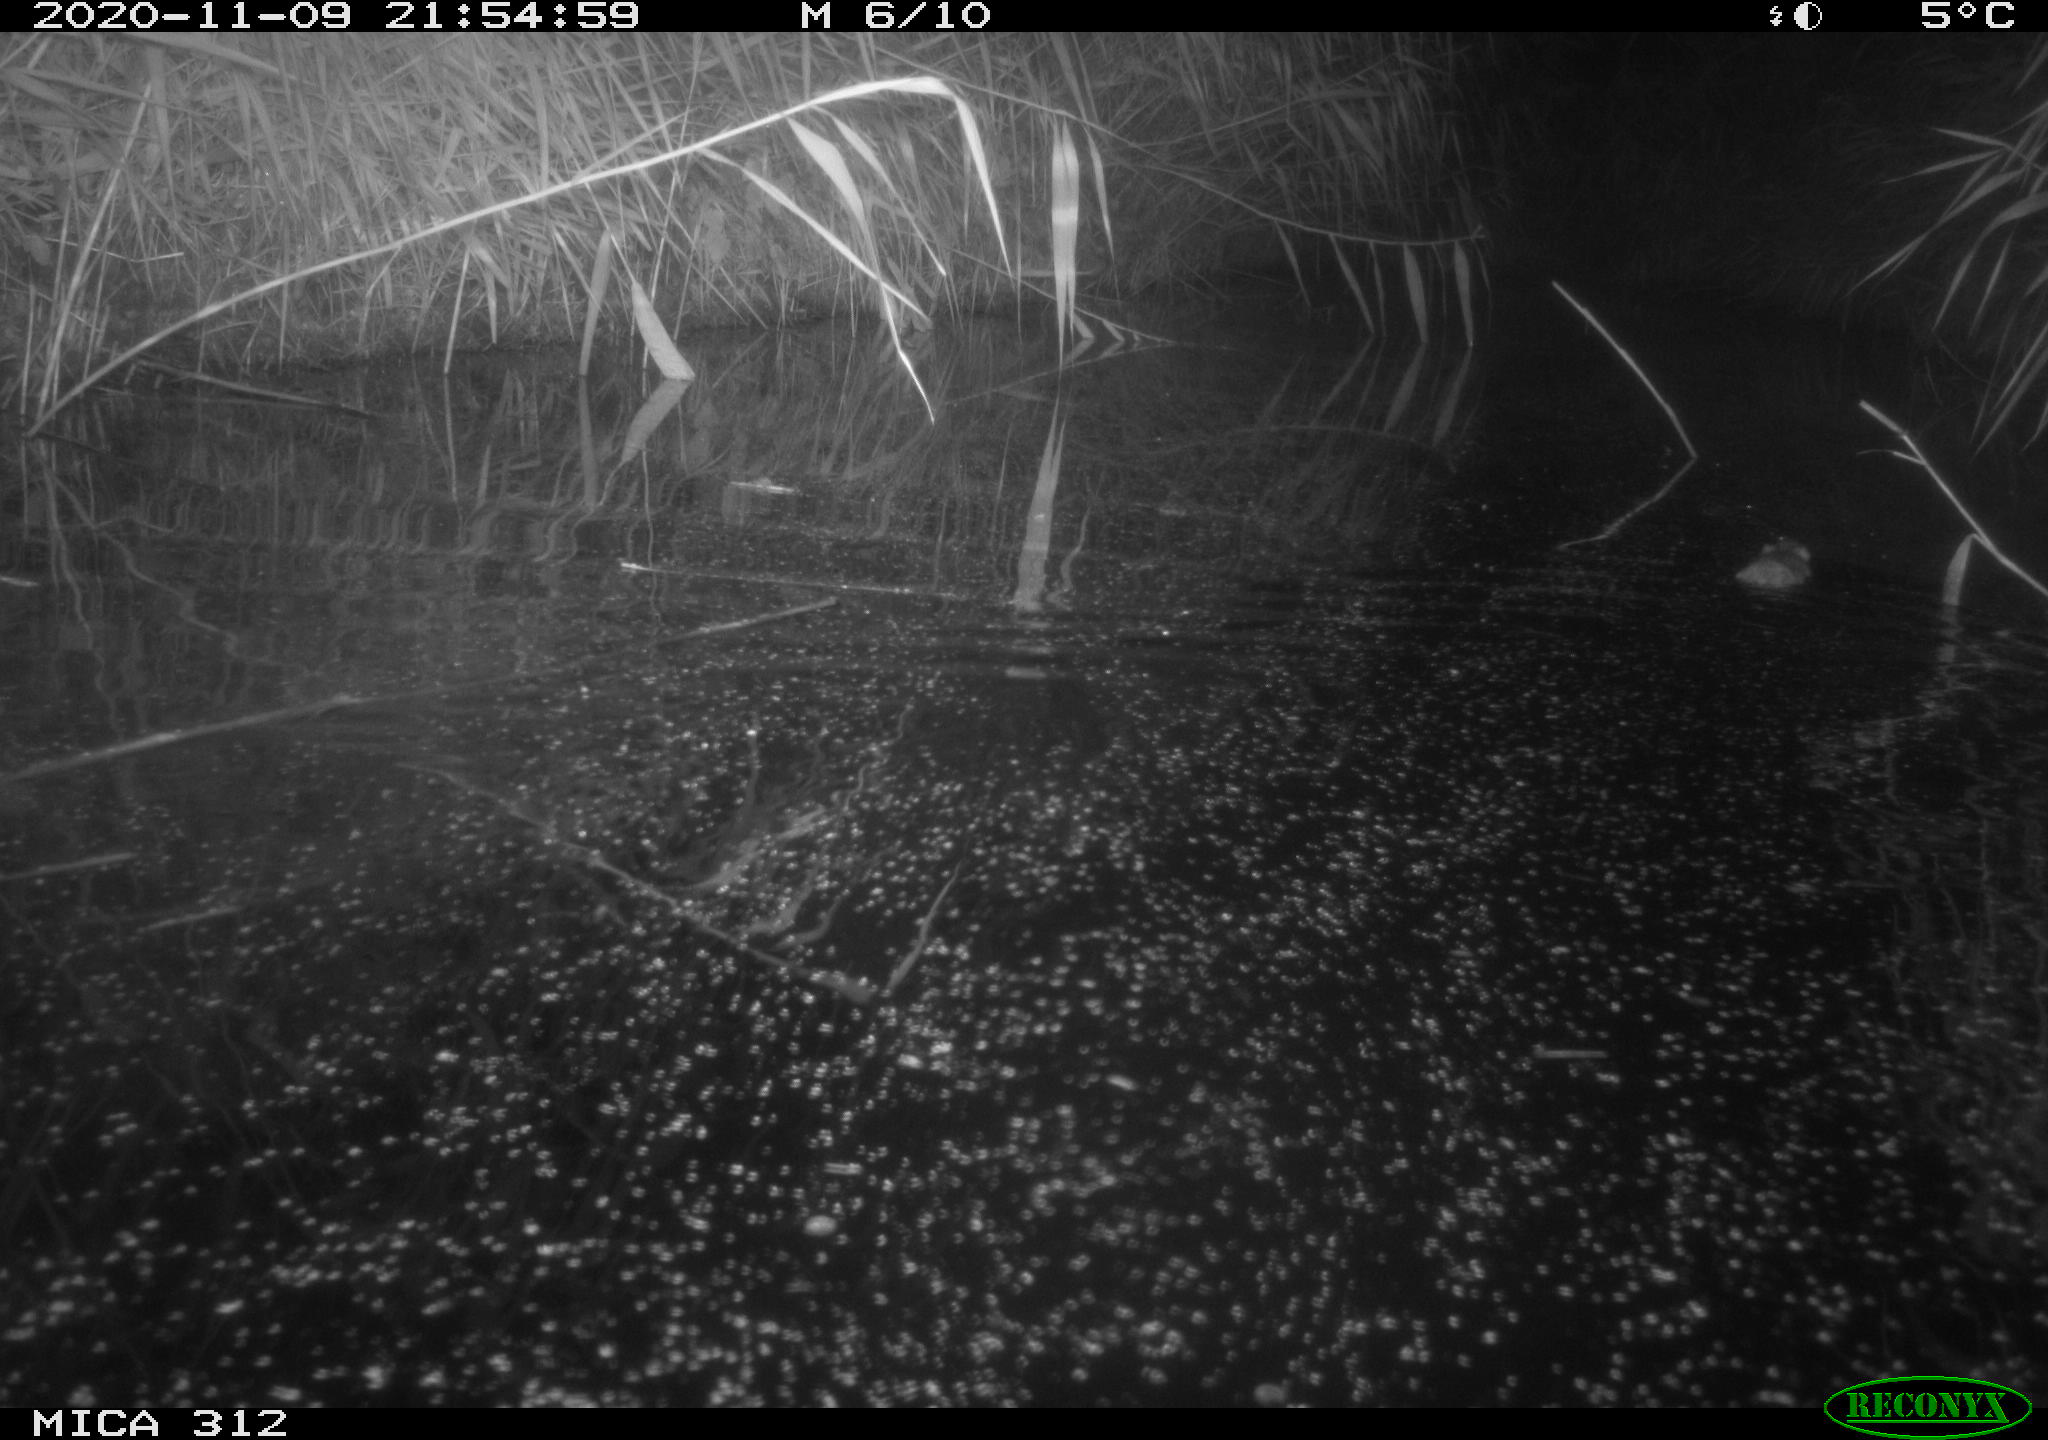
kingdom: Animalia
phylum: Chordata
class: Mammalia
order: Rodentia
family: Muridae
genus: Rattus
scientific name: Rattus norvegicus
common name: Brown rat
